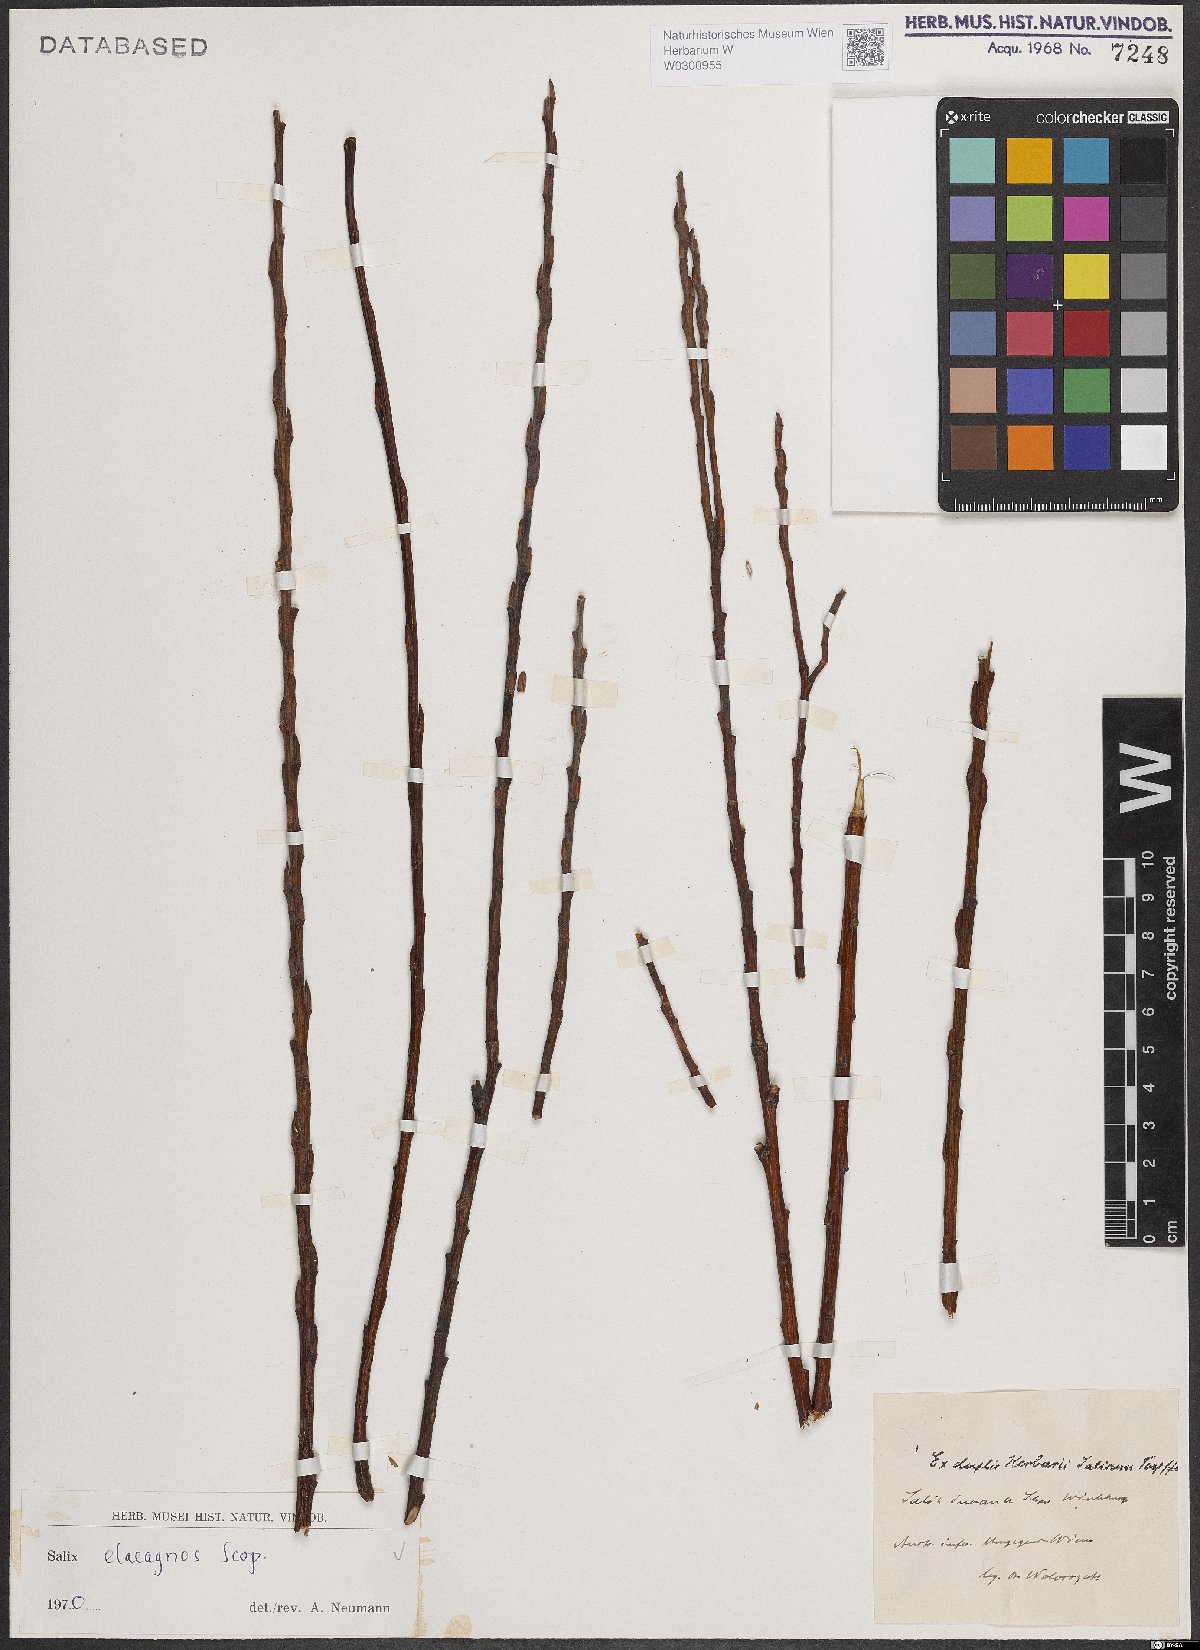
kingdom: Plantae
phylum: Tracheophyta
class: Magnoliopsida
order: Malpighiales
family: Salicaceae
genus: Salix
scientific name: Salix eleagnos
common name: Elaeagnus willow
